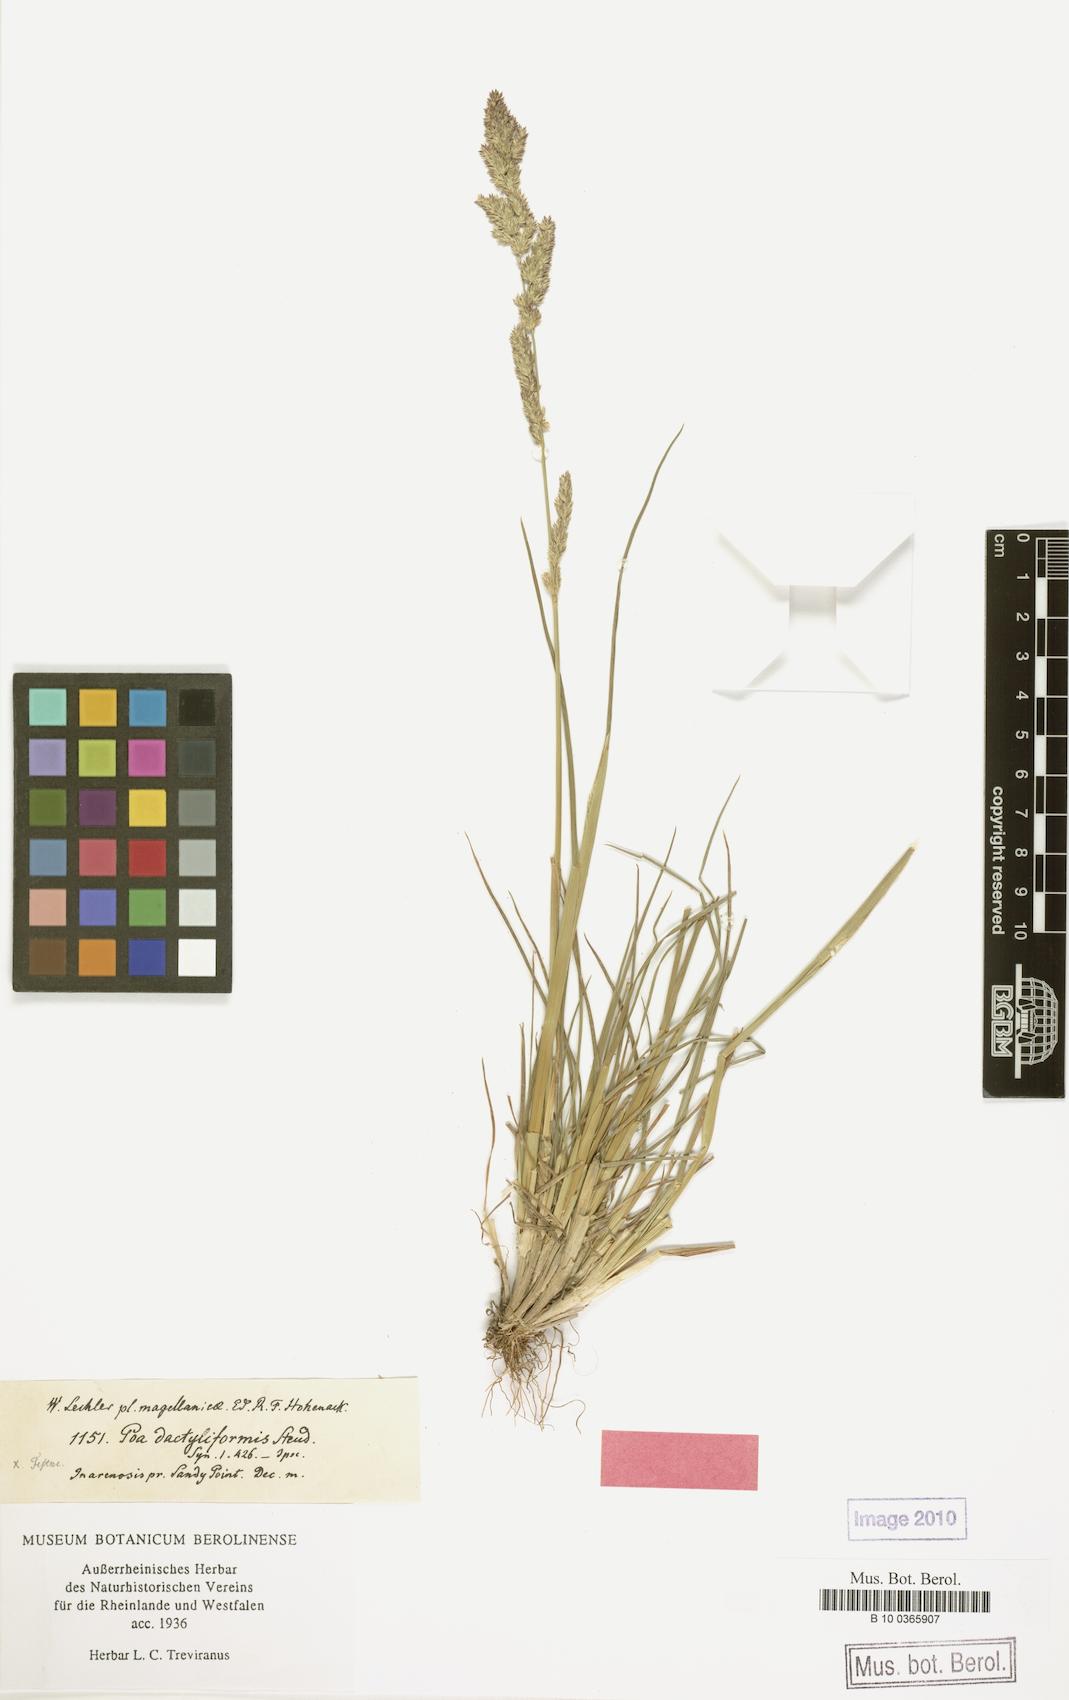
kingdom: Plantae
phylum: Tracheophyta
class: Liliopsida
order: Poales
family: Poaceae
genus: Poa
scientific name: Poa scaberula
